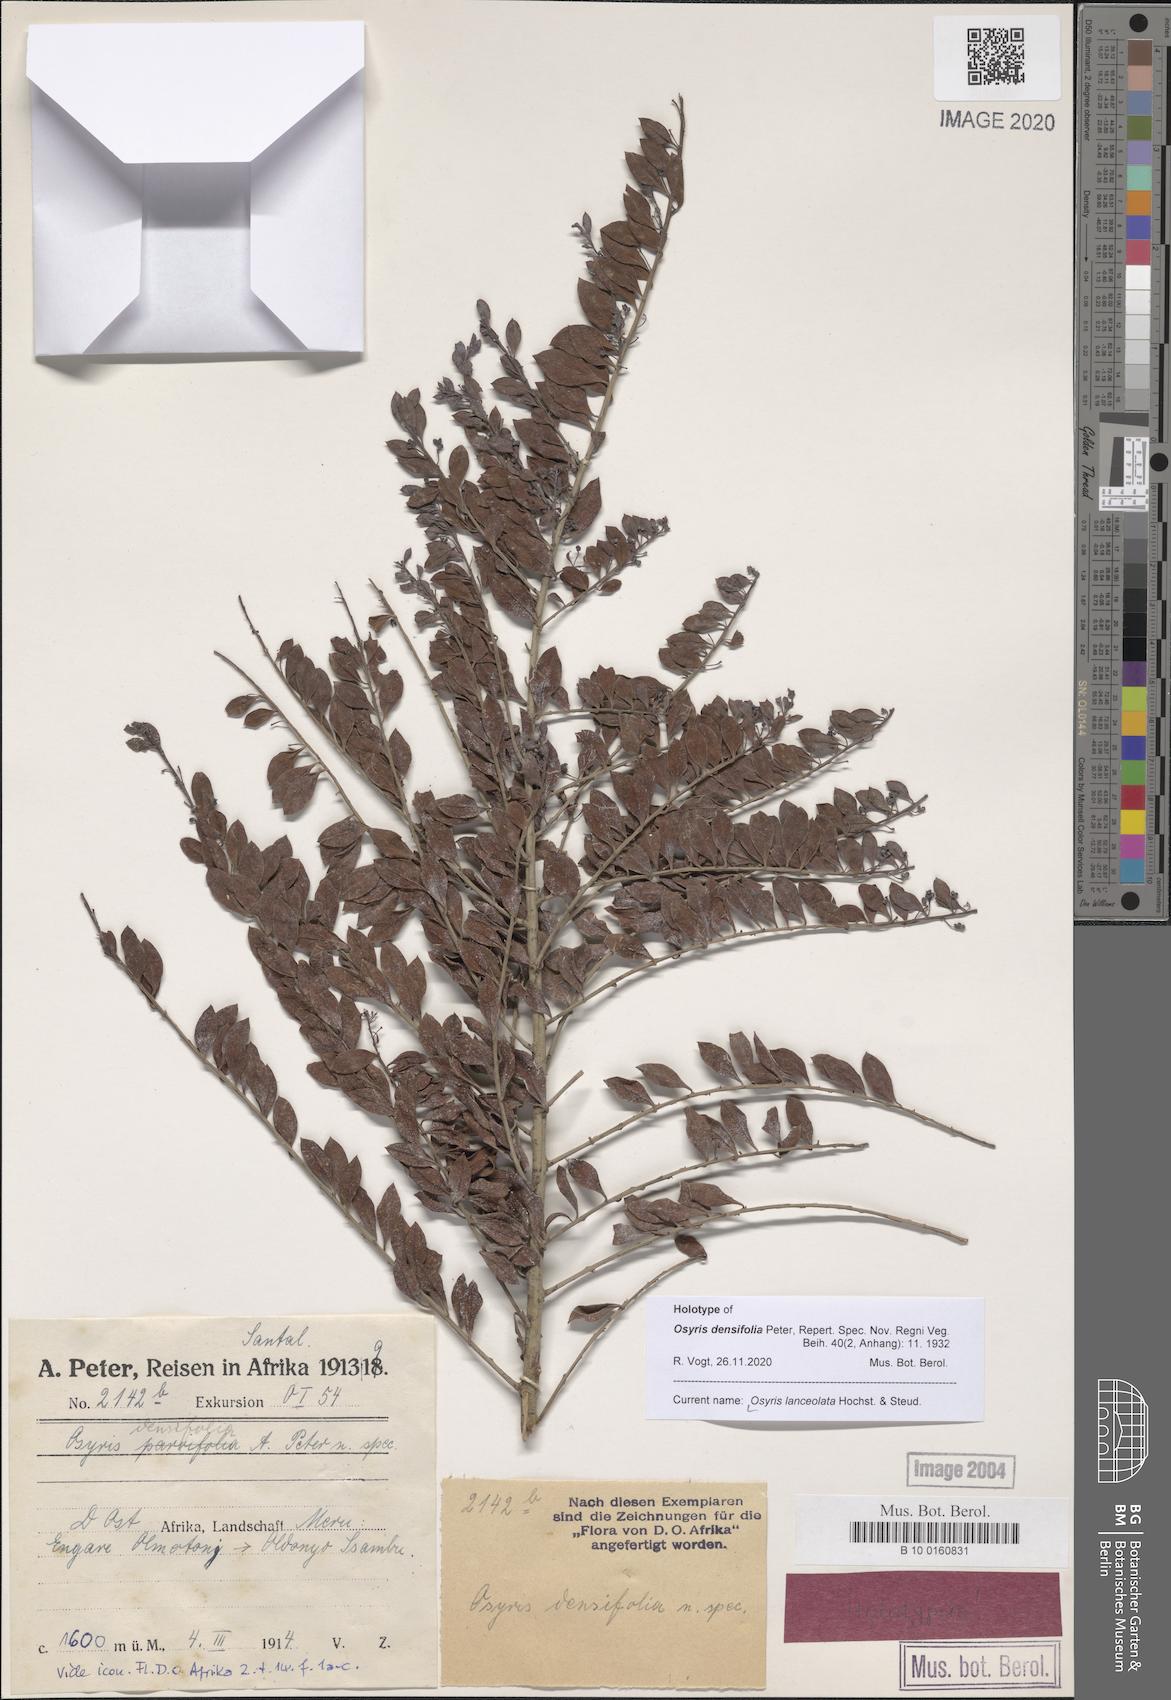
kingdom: Plantae
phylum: Tracheophyta
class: Magnoliopsida
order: Santalales
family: Santalaceae
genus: Osyris
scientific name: Osyris lanceolata
